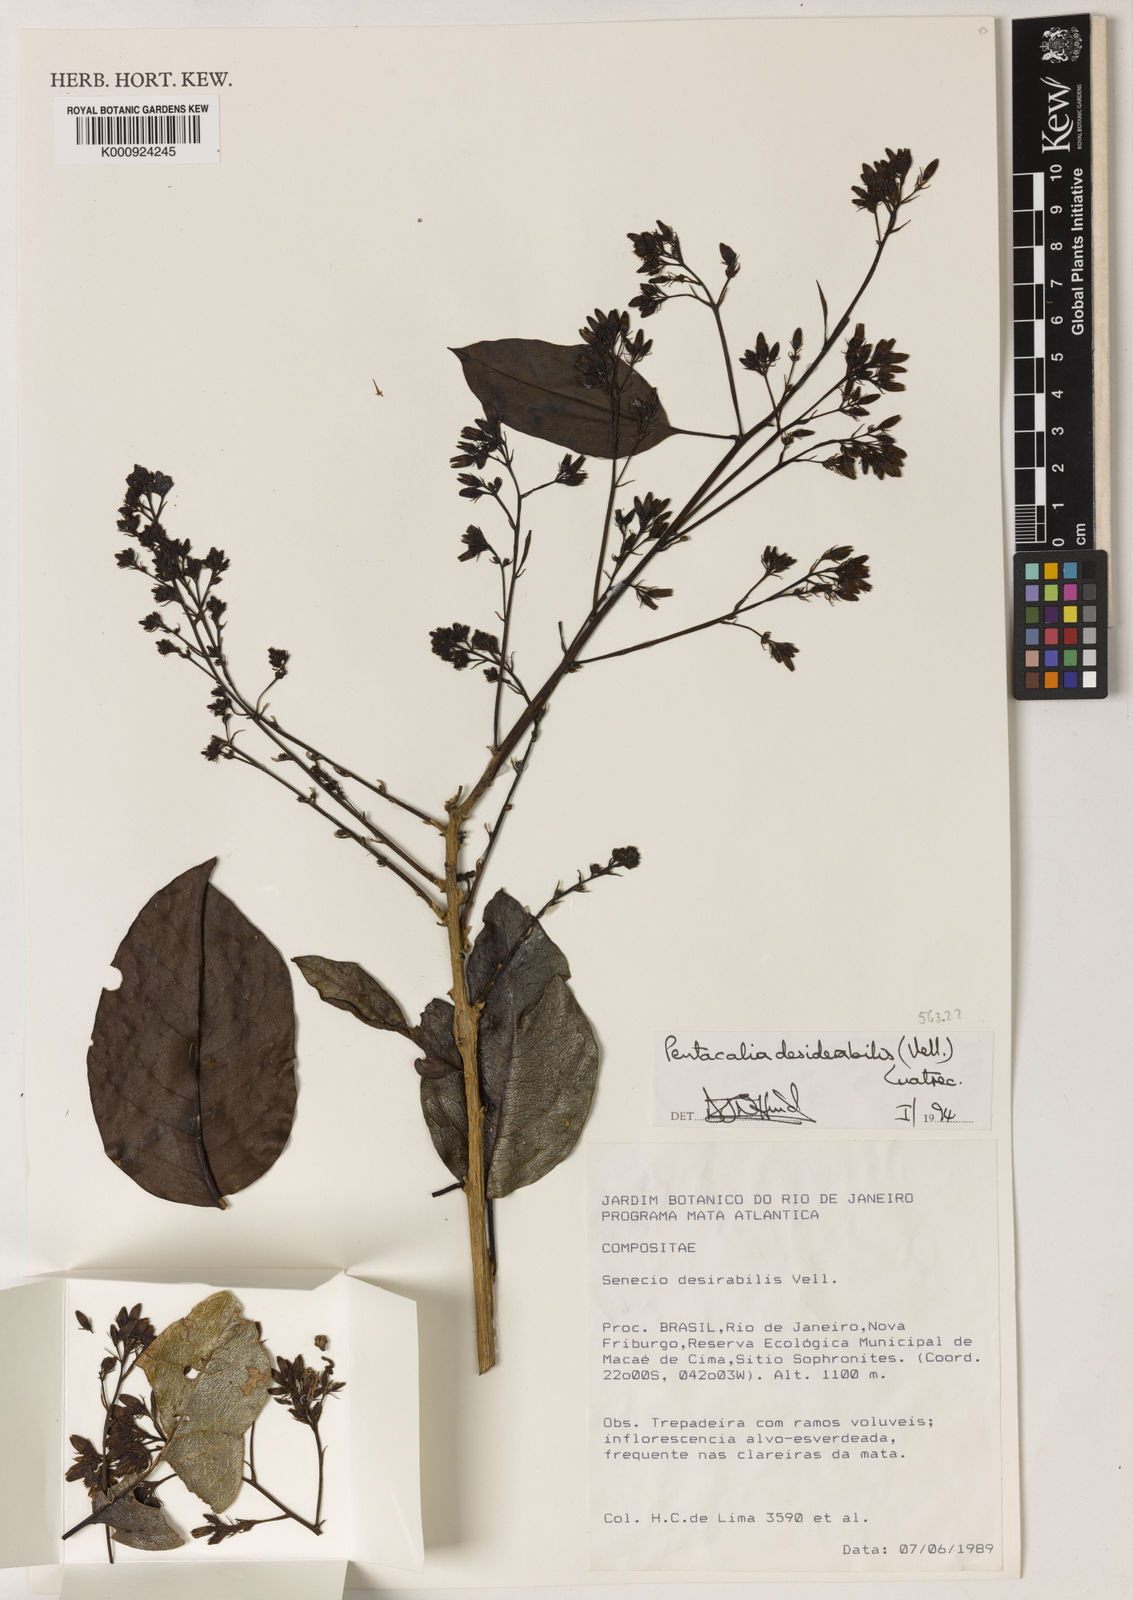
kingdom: Plantae
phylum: Tracheophyta
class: Magnoliopsida
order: Asterales
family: Asteraceae
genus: Pentacalia
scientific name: Pentacalia desiderabilis
